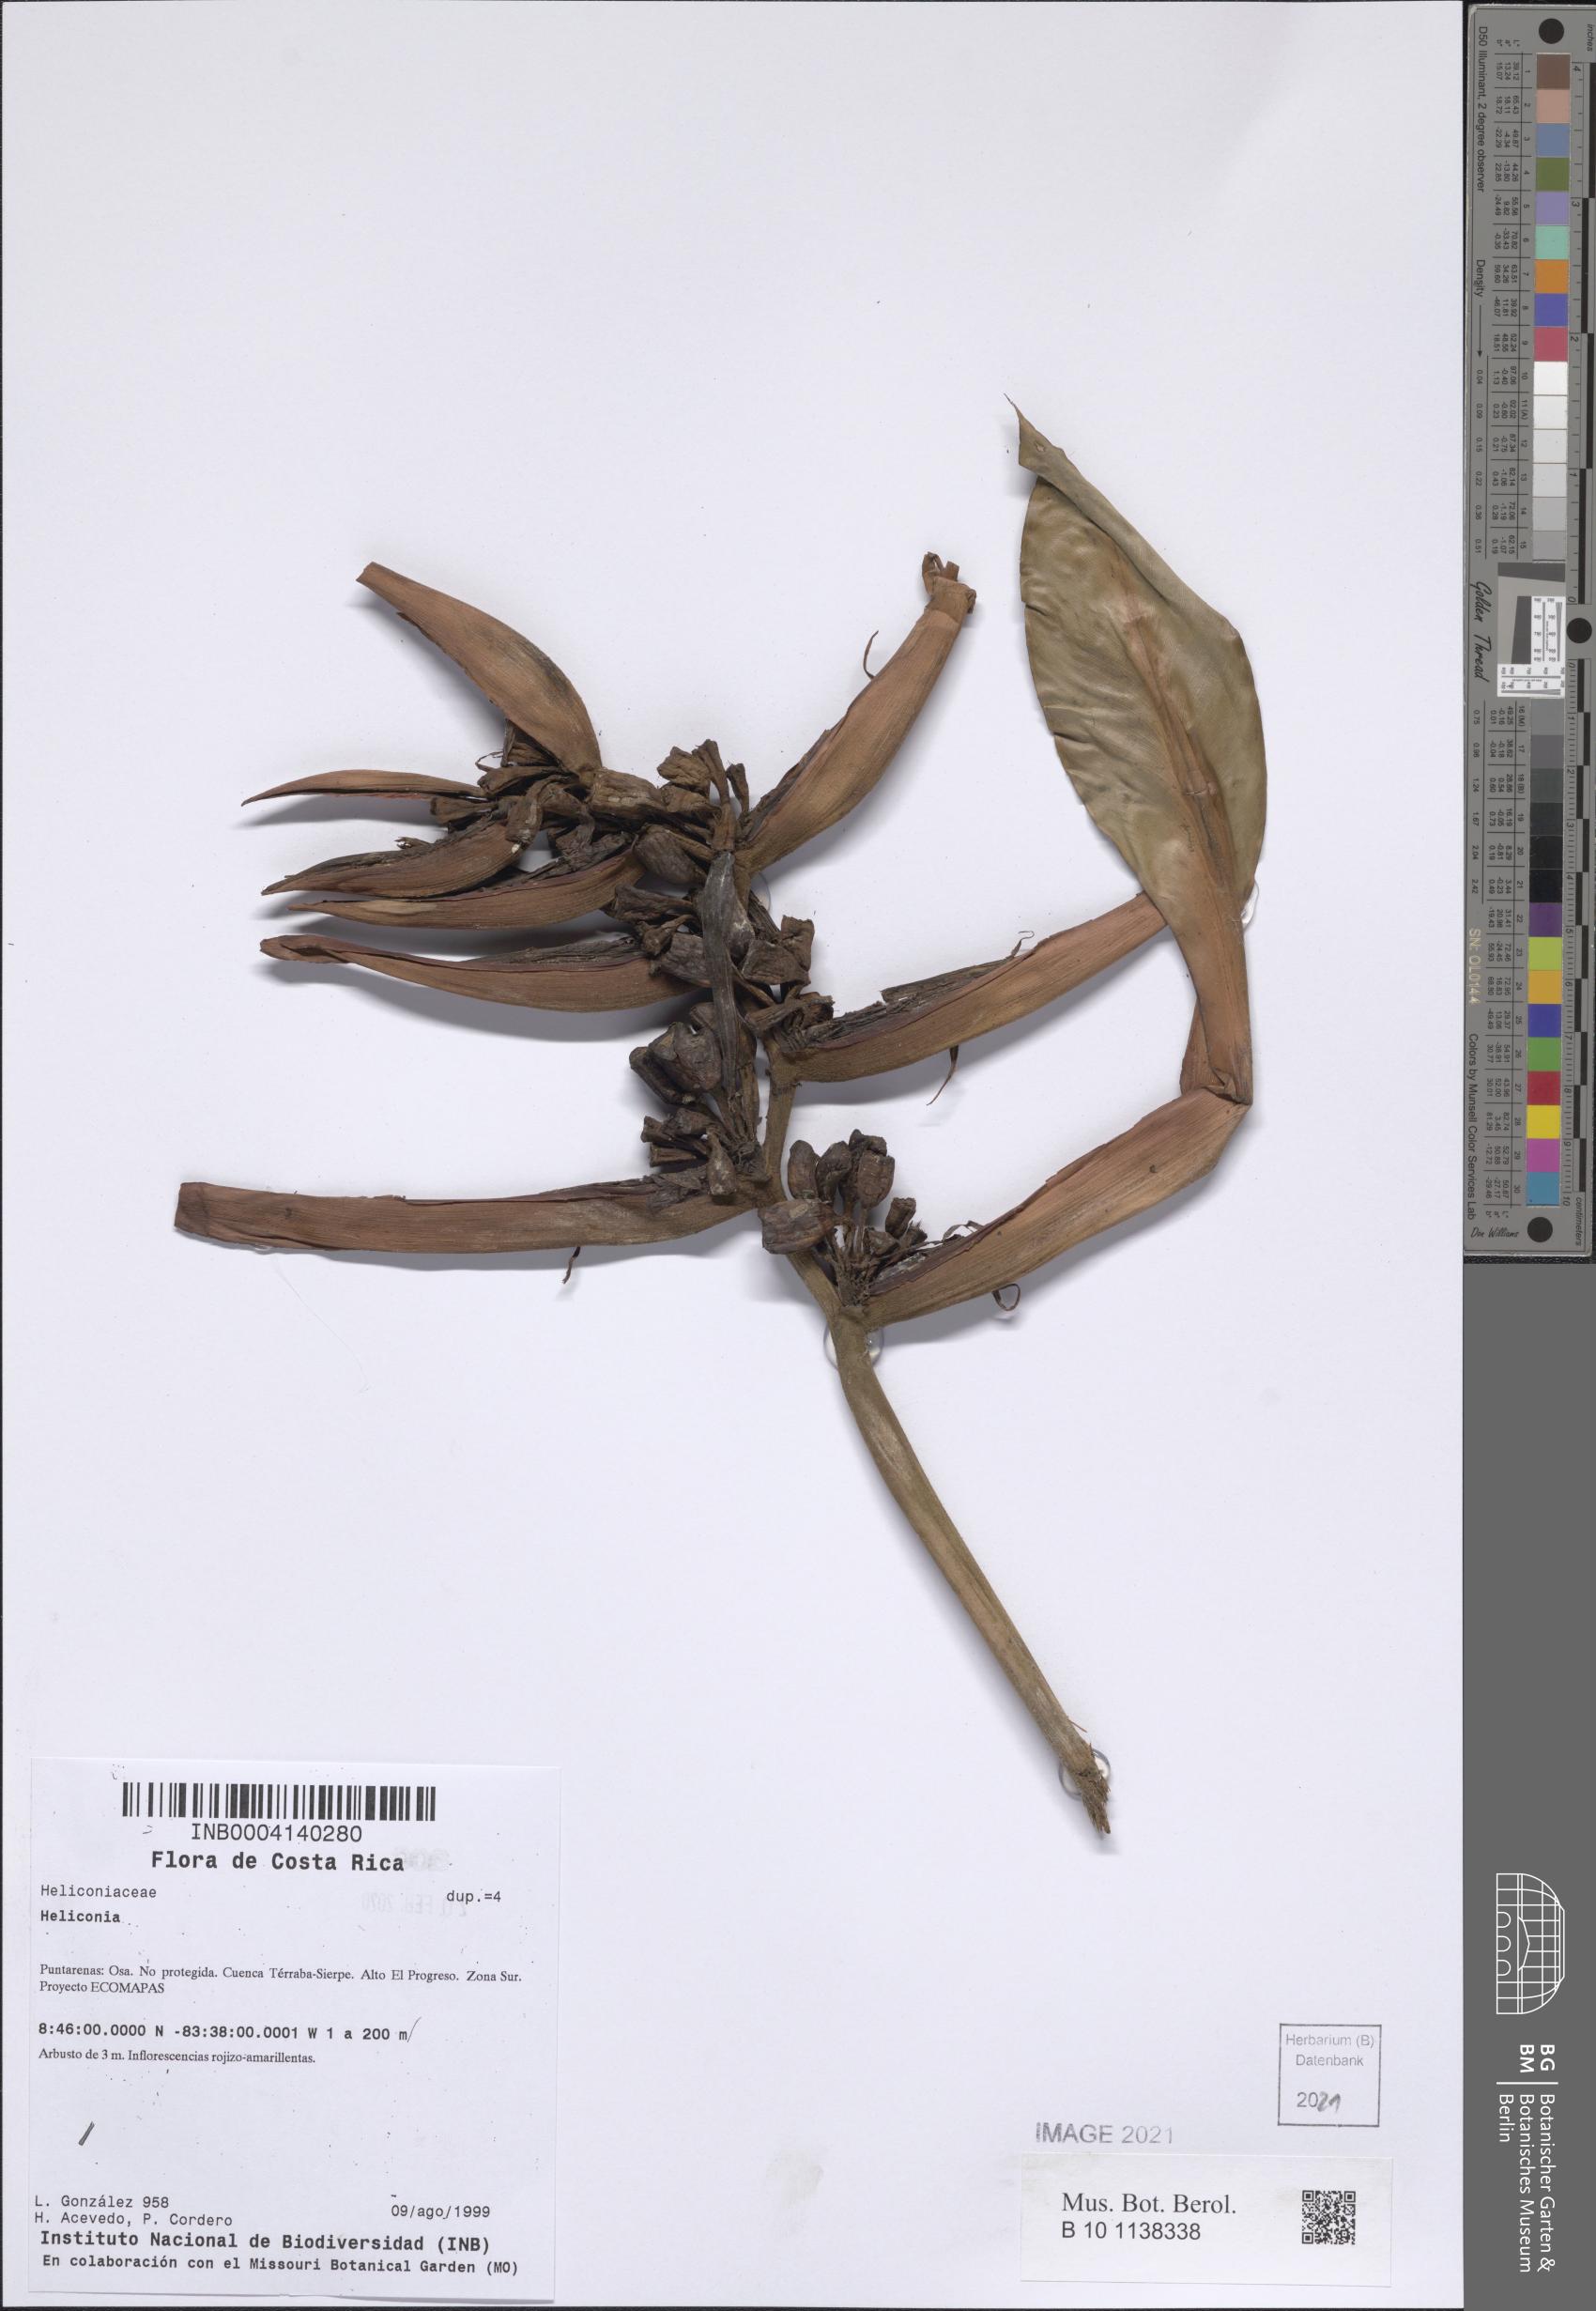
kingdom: Plantae
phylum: Tracheophyta
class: Liliopsida
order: Zingiberales
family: Heliconiaceae
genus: Heliconia
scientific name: Heliconia osaensis
